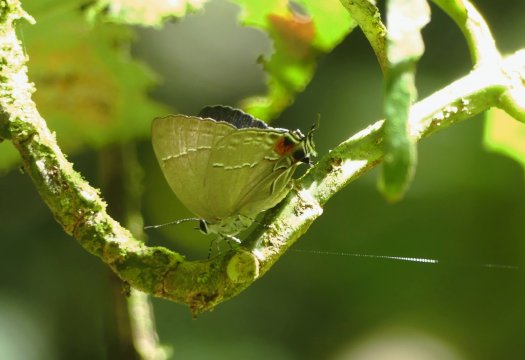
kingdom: Animalia
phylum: Arthropoda
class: Insecta
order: Lepidoptera
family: Lycaenidae
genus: Strymon
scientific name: Strymon gabatha
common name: Great Scrub-Hairstreak
